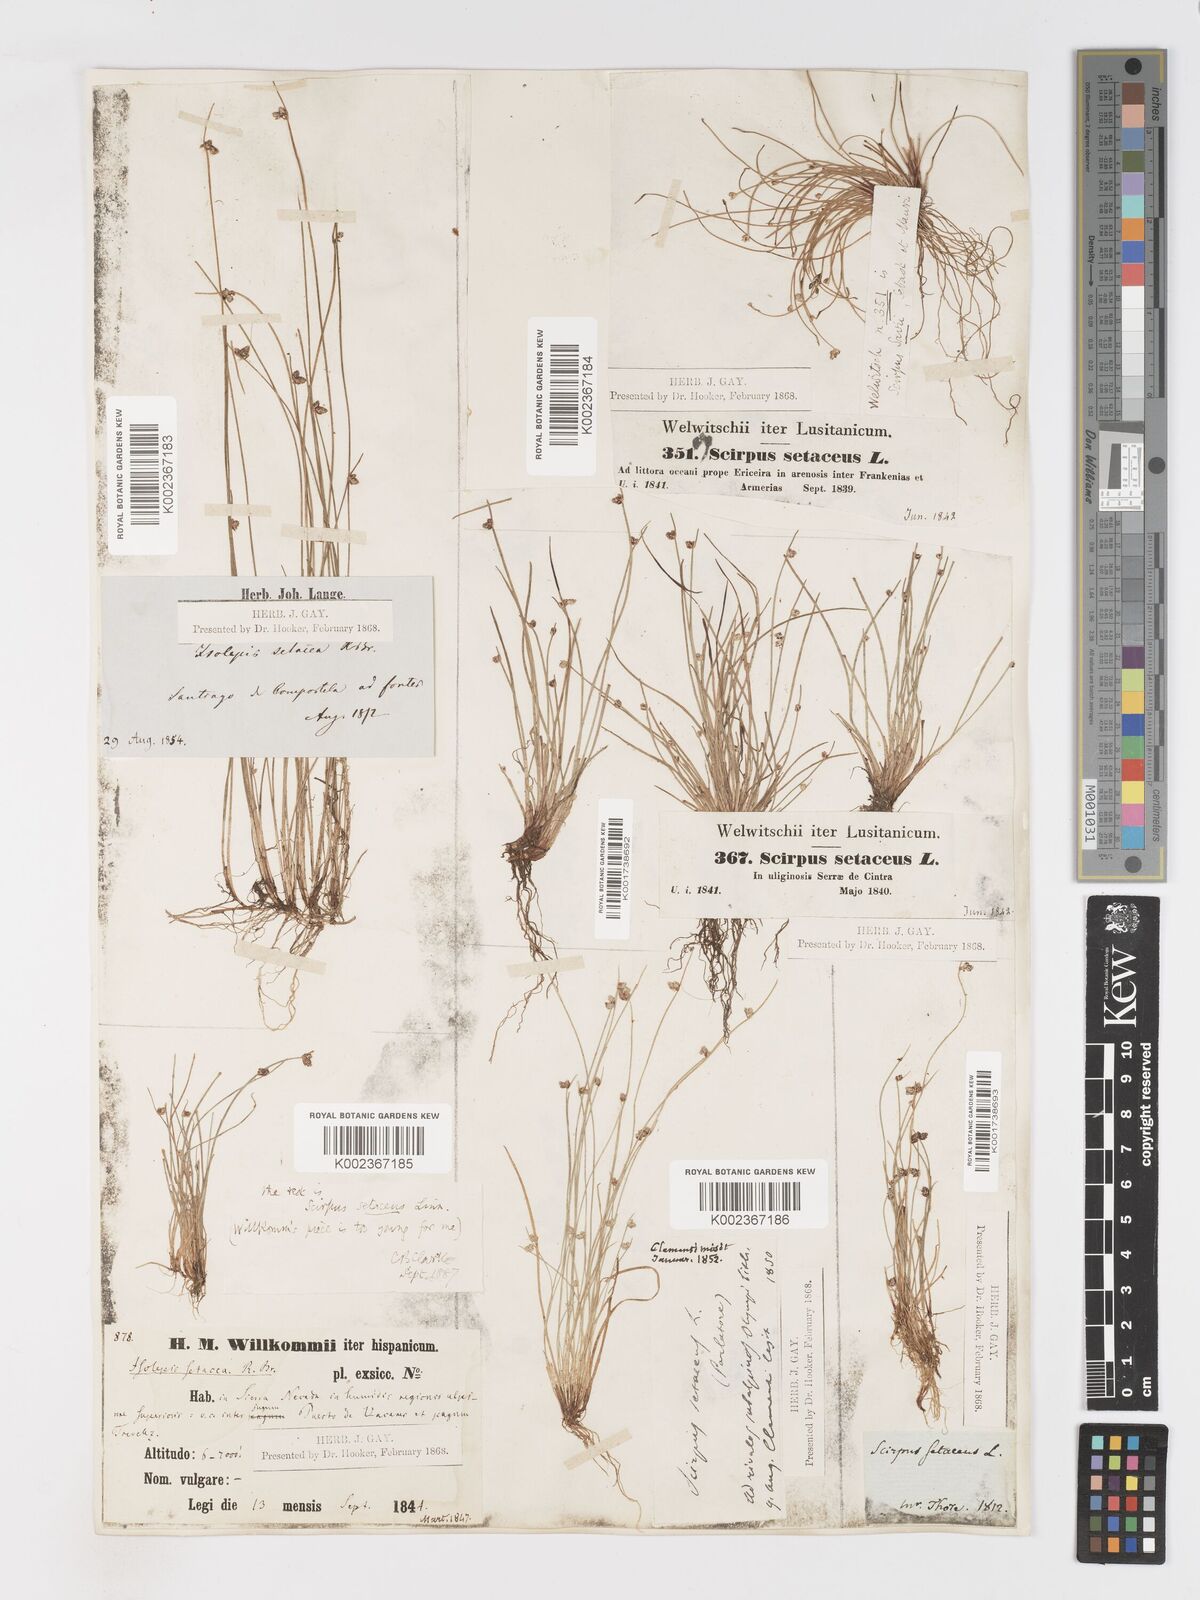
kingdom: Plantae
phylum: Tracheophyta
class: Liliopsida
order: Poales
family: Cyperaceae
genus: Isolepis
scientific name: Isolepis setacea
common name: Bristle club-rush
